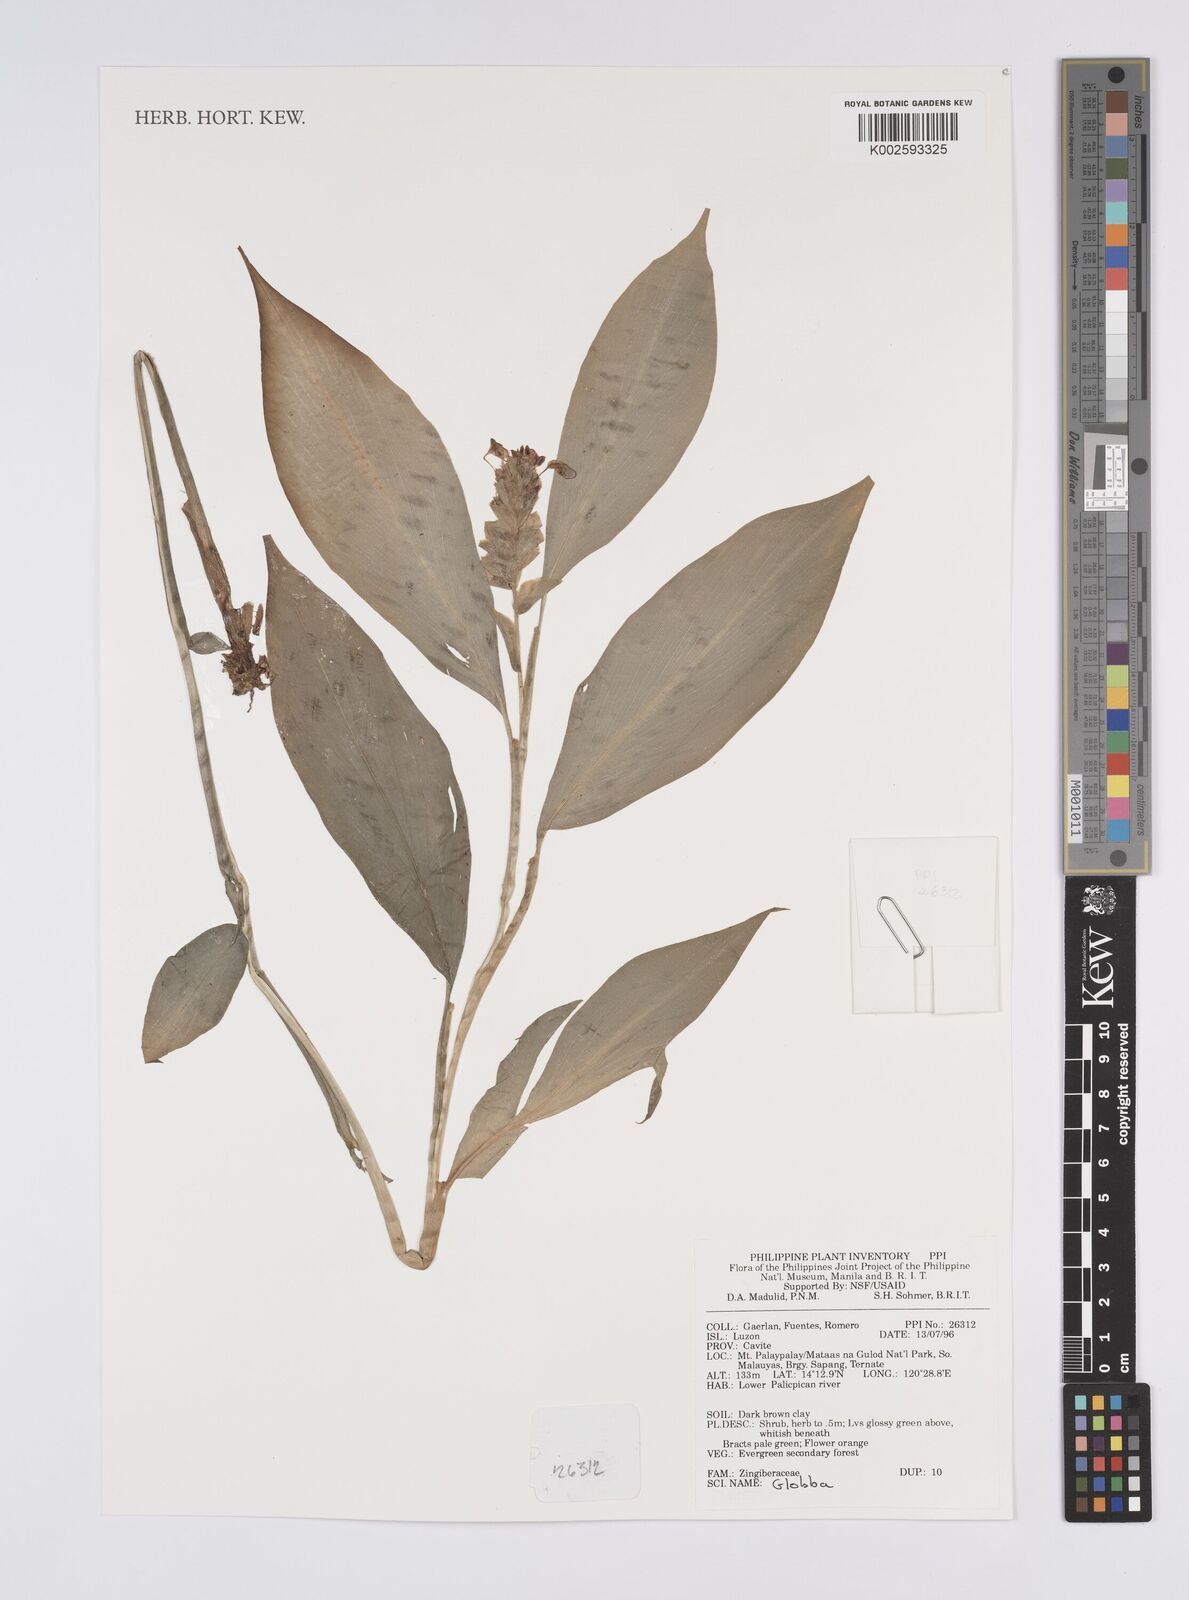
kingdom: Plantae
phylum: Tracheophyta
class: Liliopsida
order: Zingiberales
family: Zingiberaceae
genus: Globba
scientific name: Globba
